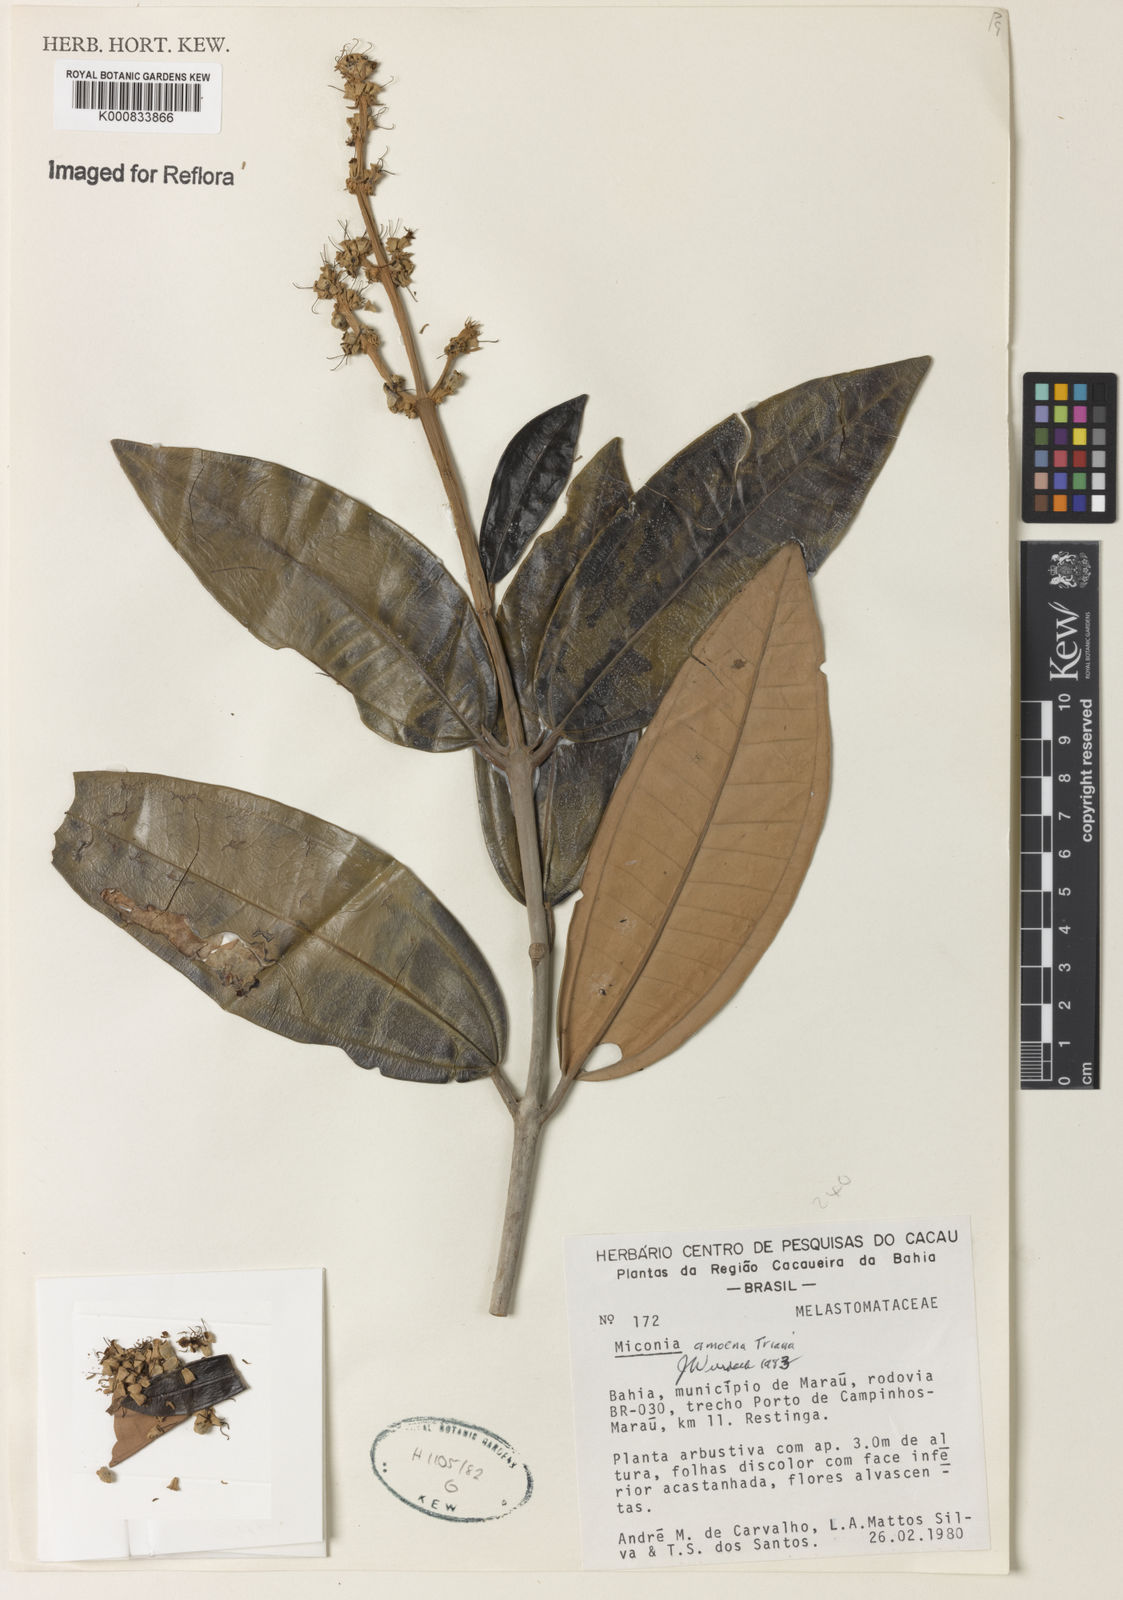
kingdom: Plantae
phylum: Tracheophyta
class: Magnoliopsida
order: Myrtales
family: Melastomataceae
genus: Miconia
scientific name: Miconia amoena
